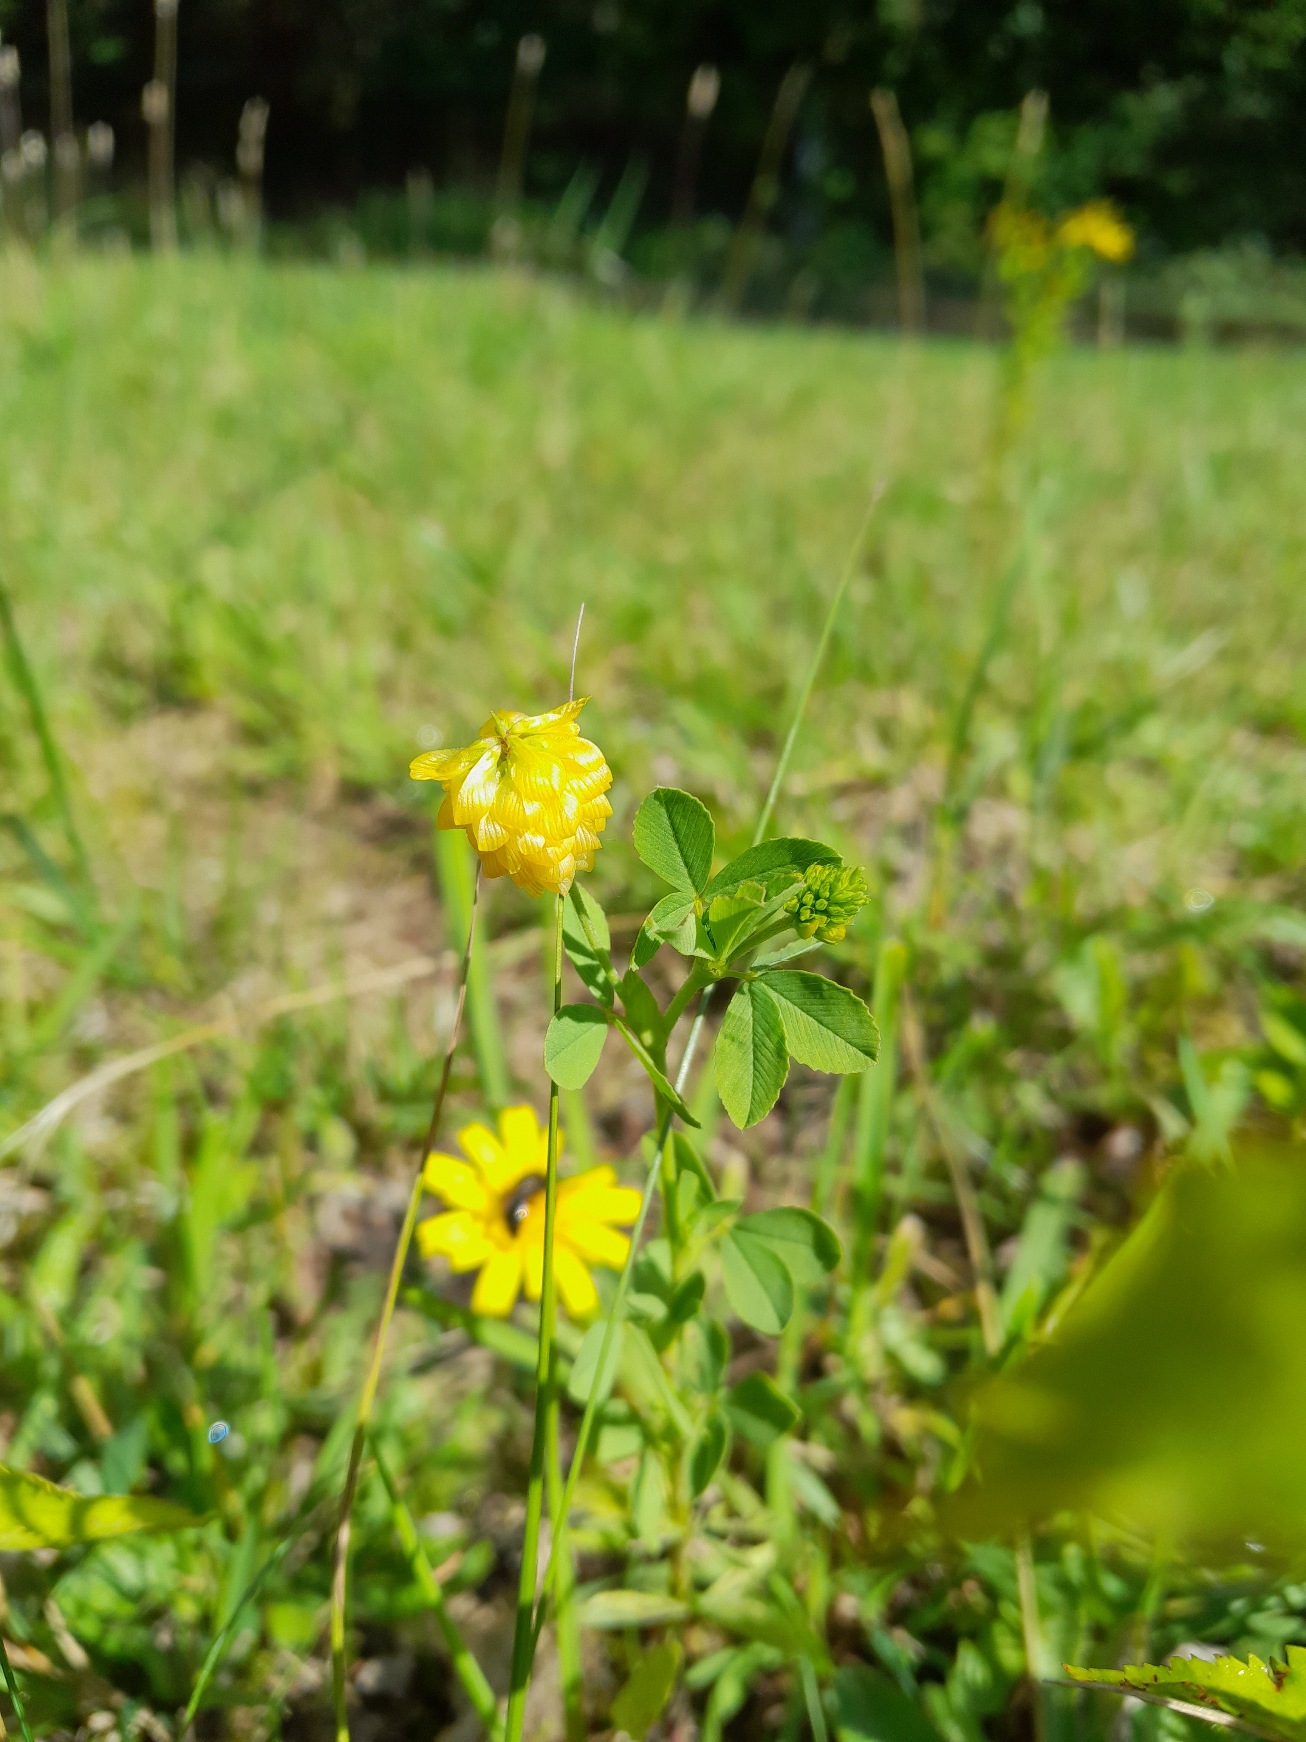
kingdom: Plantae
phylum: Tracheophyta
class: Magnoliopsida
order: Fabales
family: Fabaceae
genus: Trifolium
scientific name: Trifolium aureum
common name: Humle-kløver
